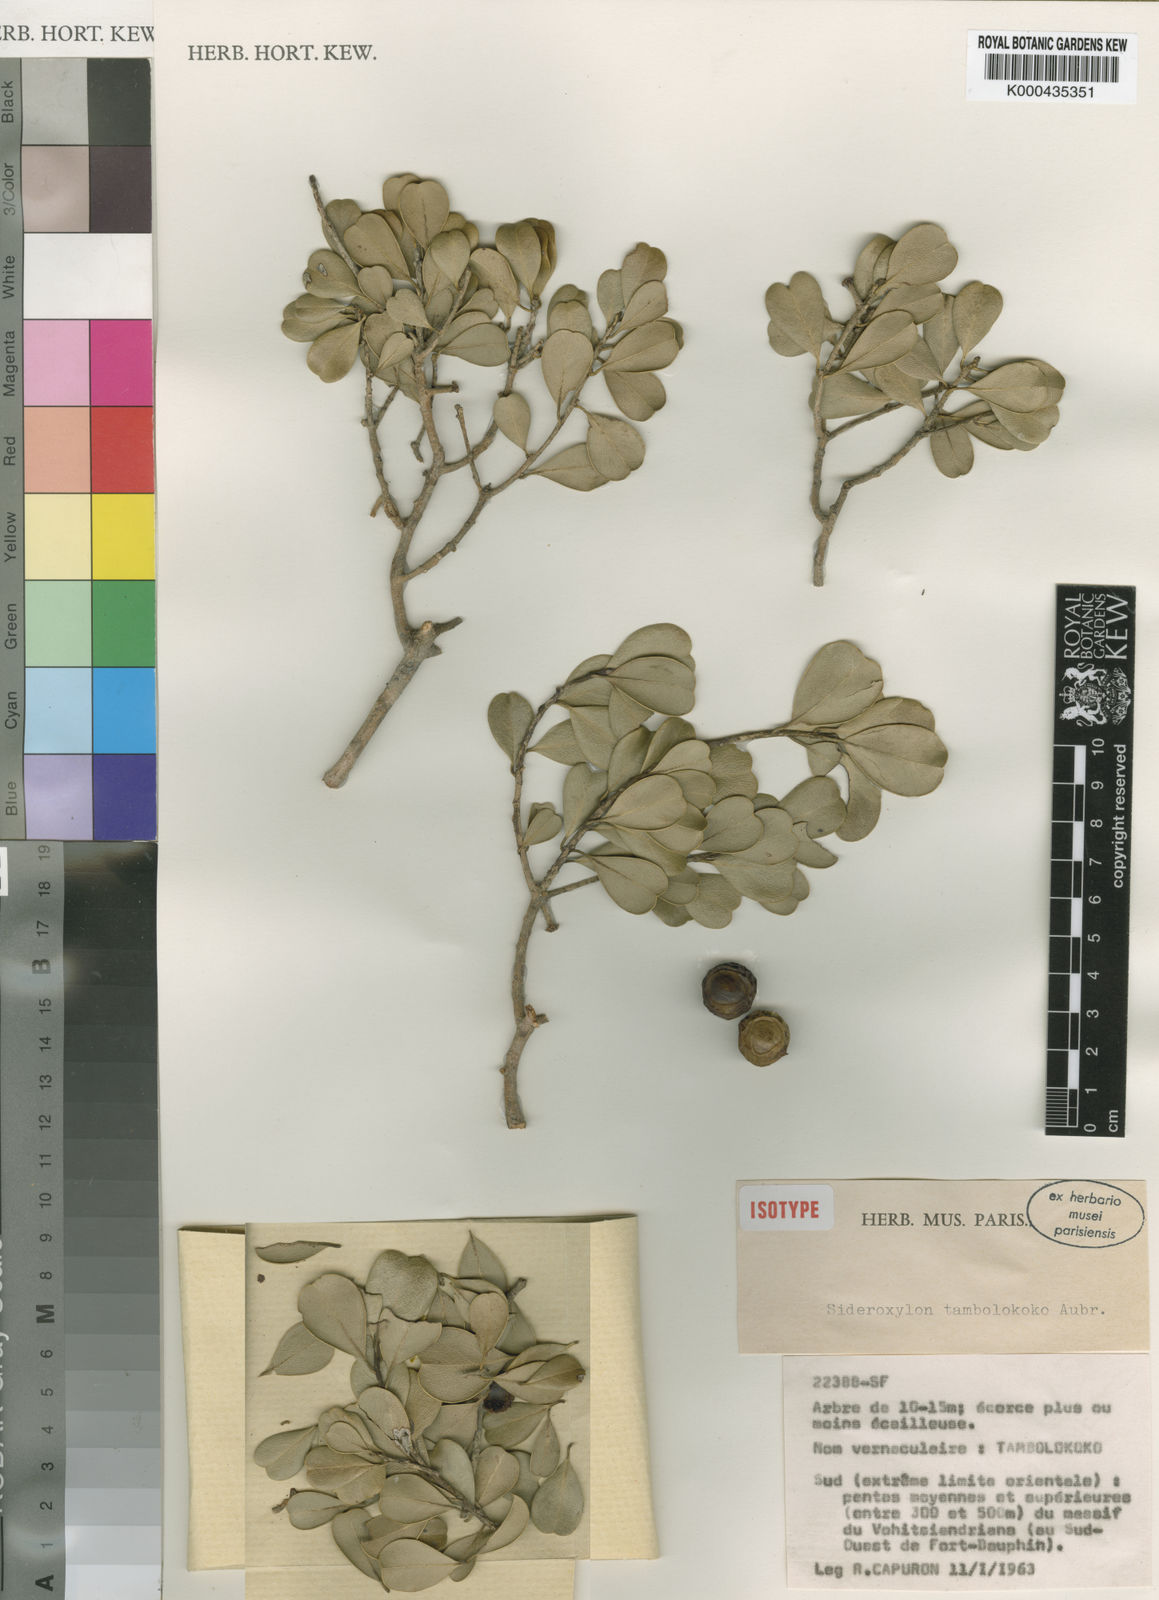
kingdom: Plantae
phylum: Tracheophyta
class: Magnoliopsida
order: Ericales
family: Sapotaceae
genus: Sideroxylon
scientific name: Sideroxylon
